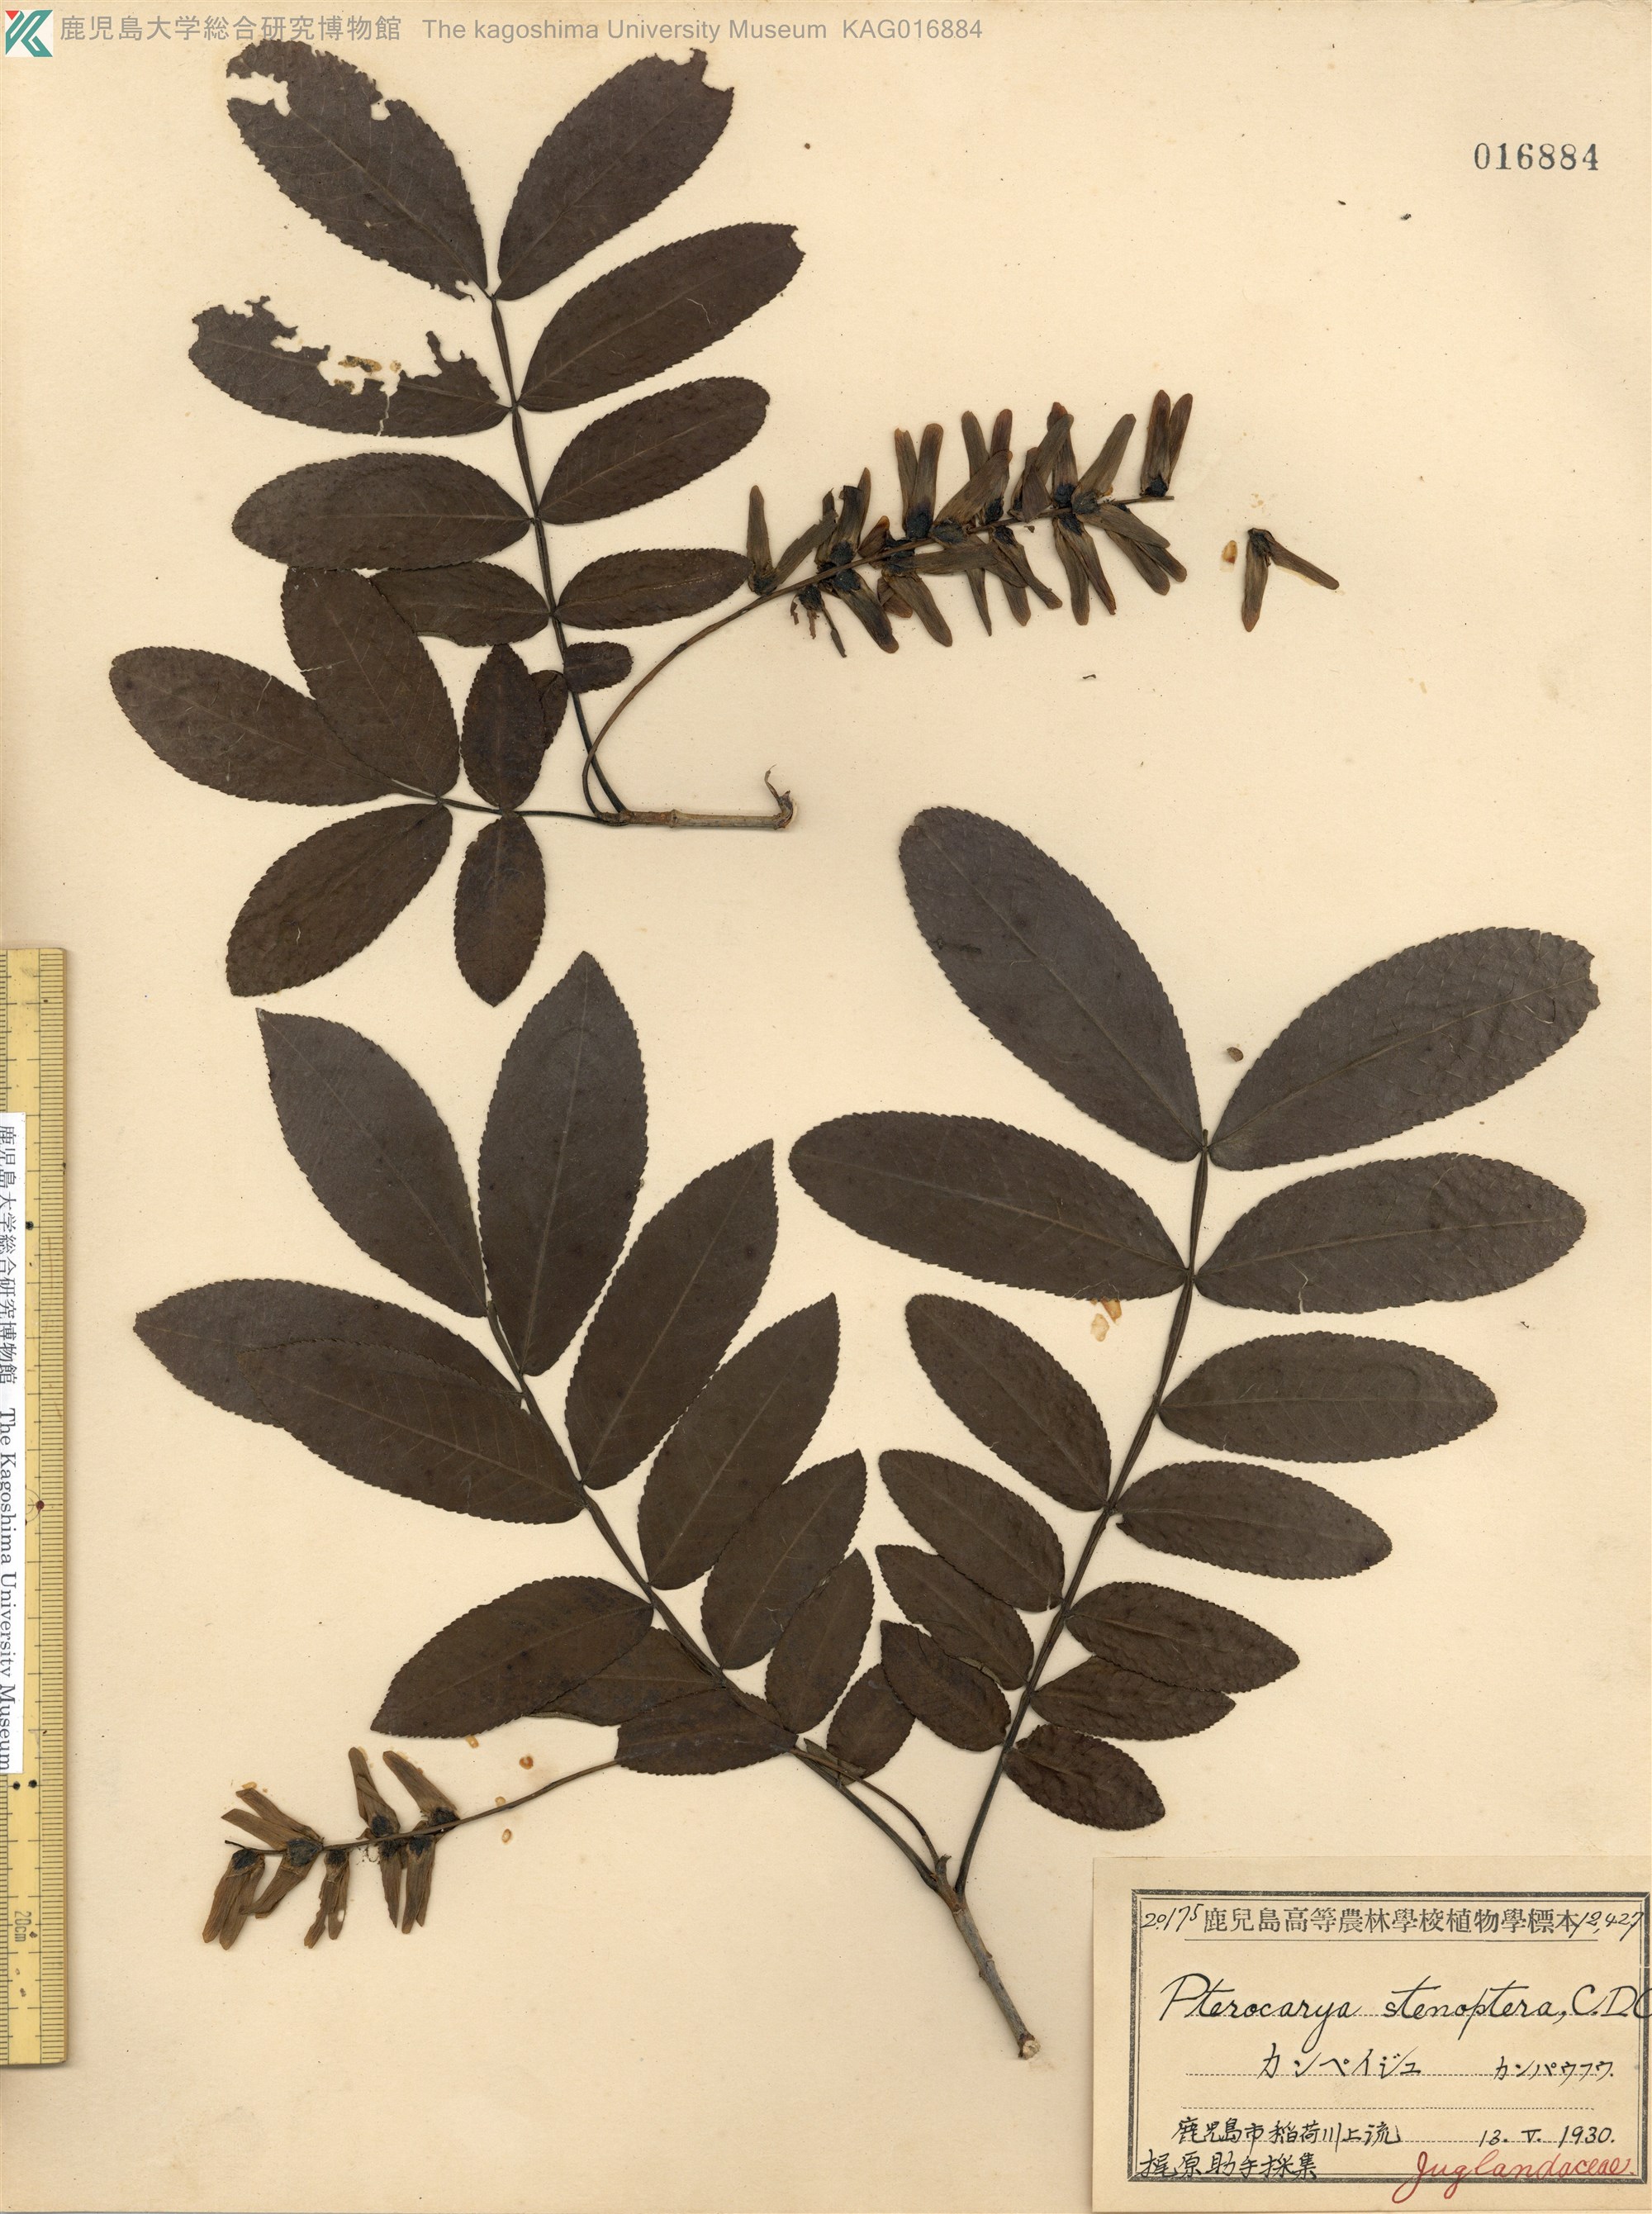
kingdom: Plantae
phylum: Tracheophyta
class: Magnoliopsida
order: Fagales
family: Juglandaceae
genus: Pterocarya
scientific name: Pterocarya stenoptera
